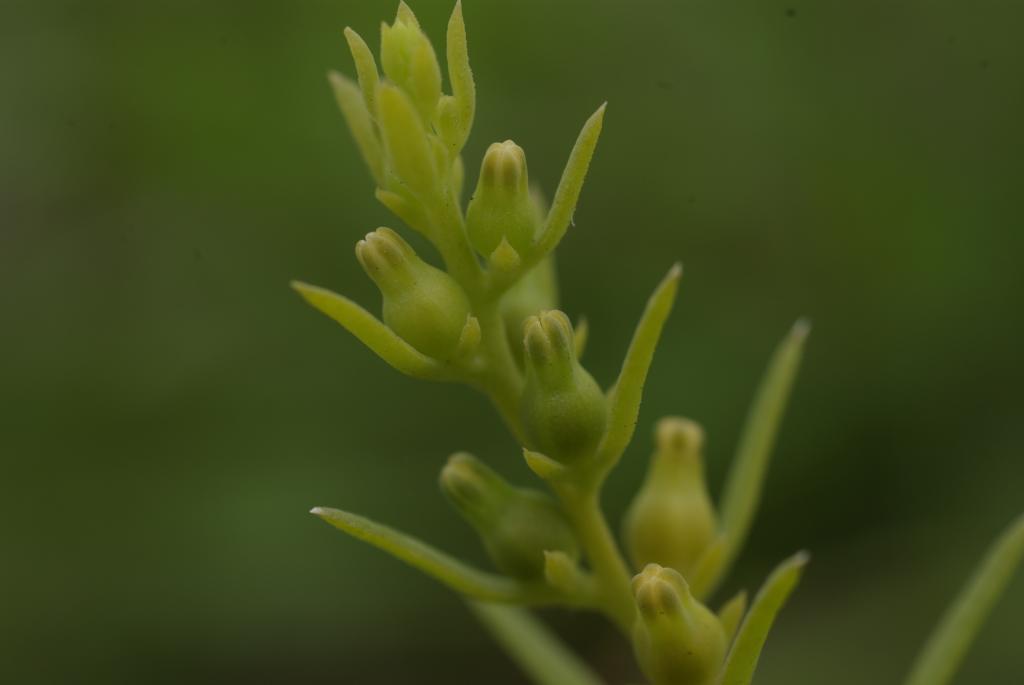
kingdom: Plantae
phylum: Tracheophyta
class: Magnoliopsida
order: Santalales
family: Thesiaceae
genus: Thesium
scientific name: Thesium chinense
